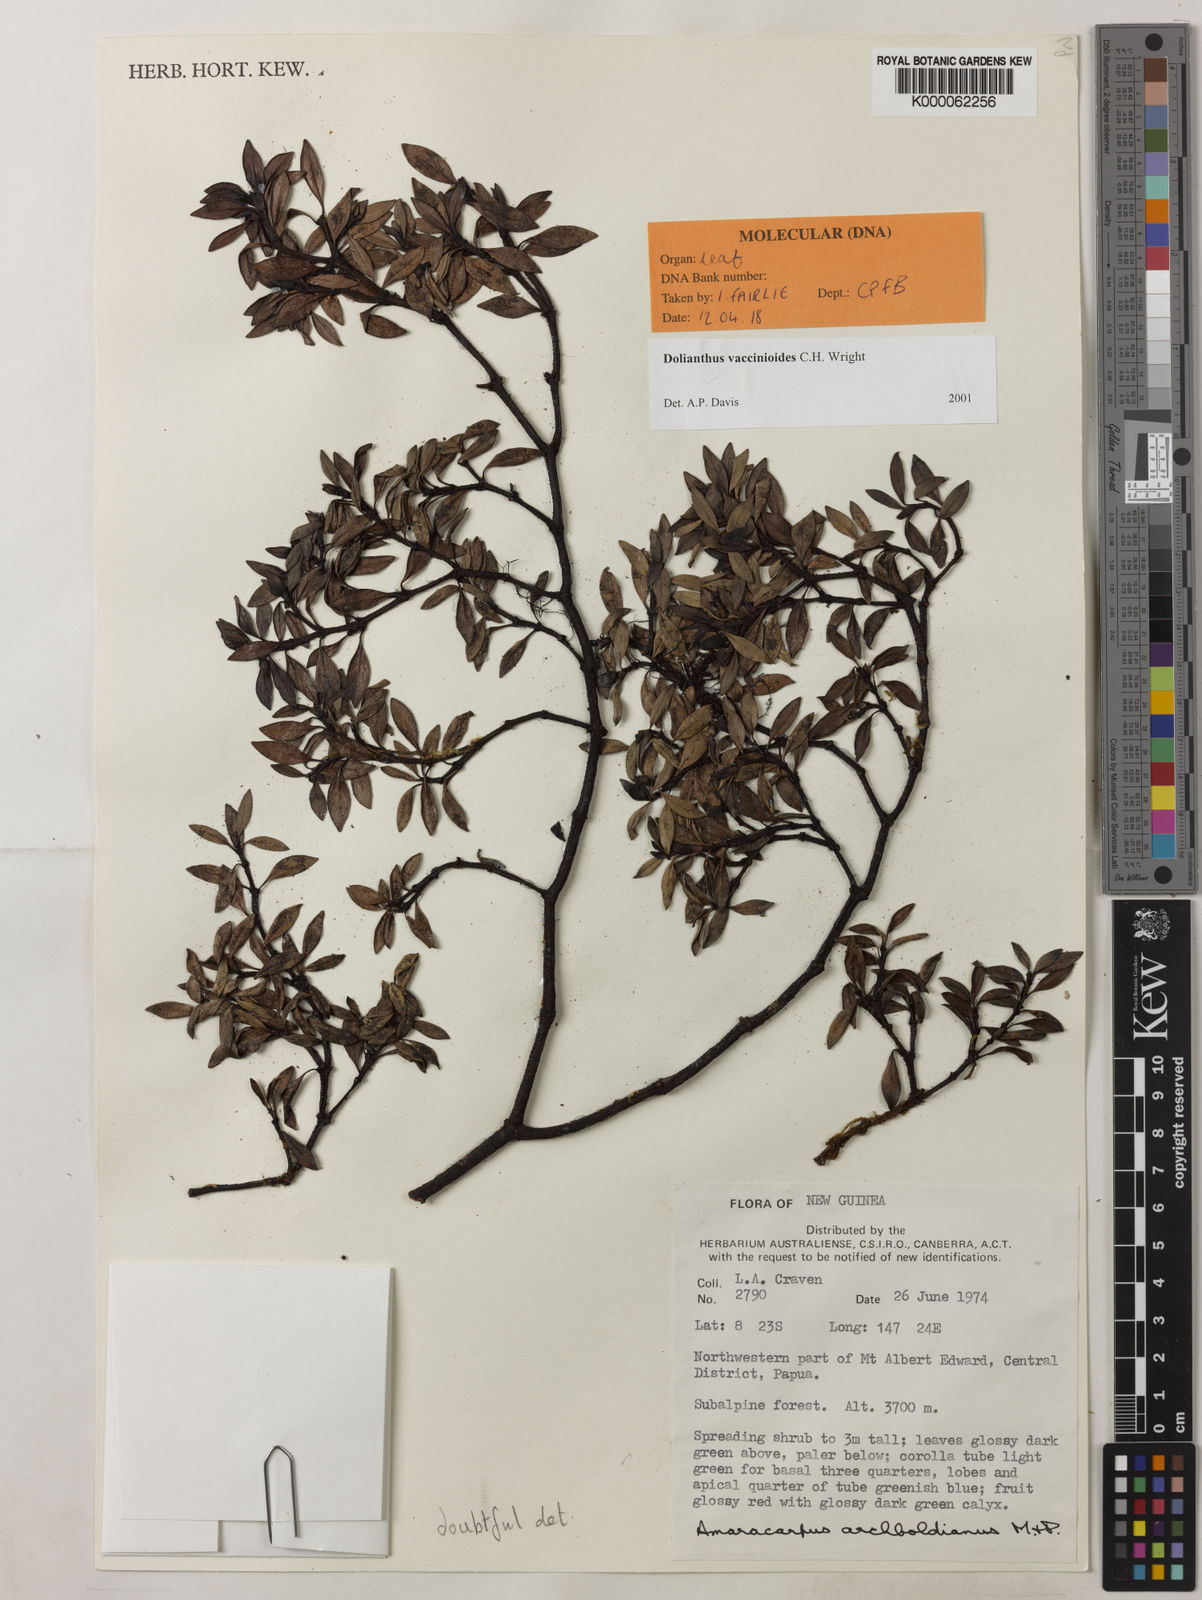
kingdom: Plantae
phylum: Tracheophyta
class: Magnoliopsida
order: Gentianales
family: Rubiaceae
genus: Dolianthus
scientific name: Dolianthus vaccinioides
